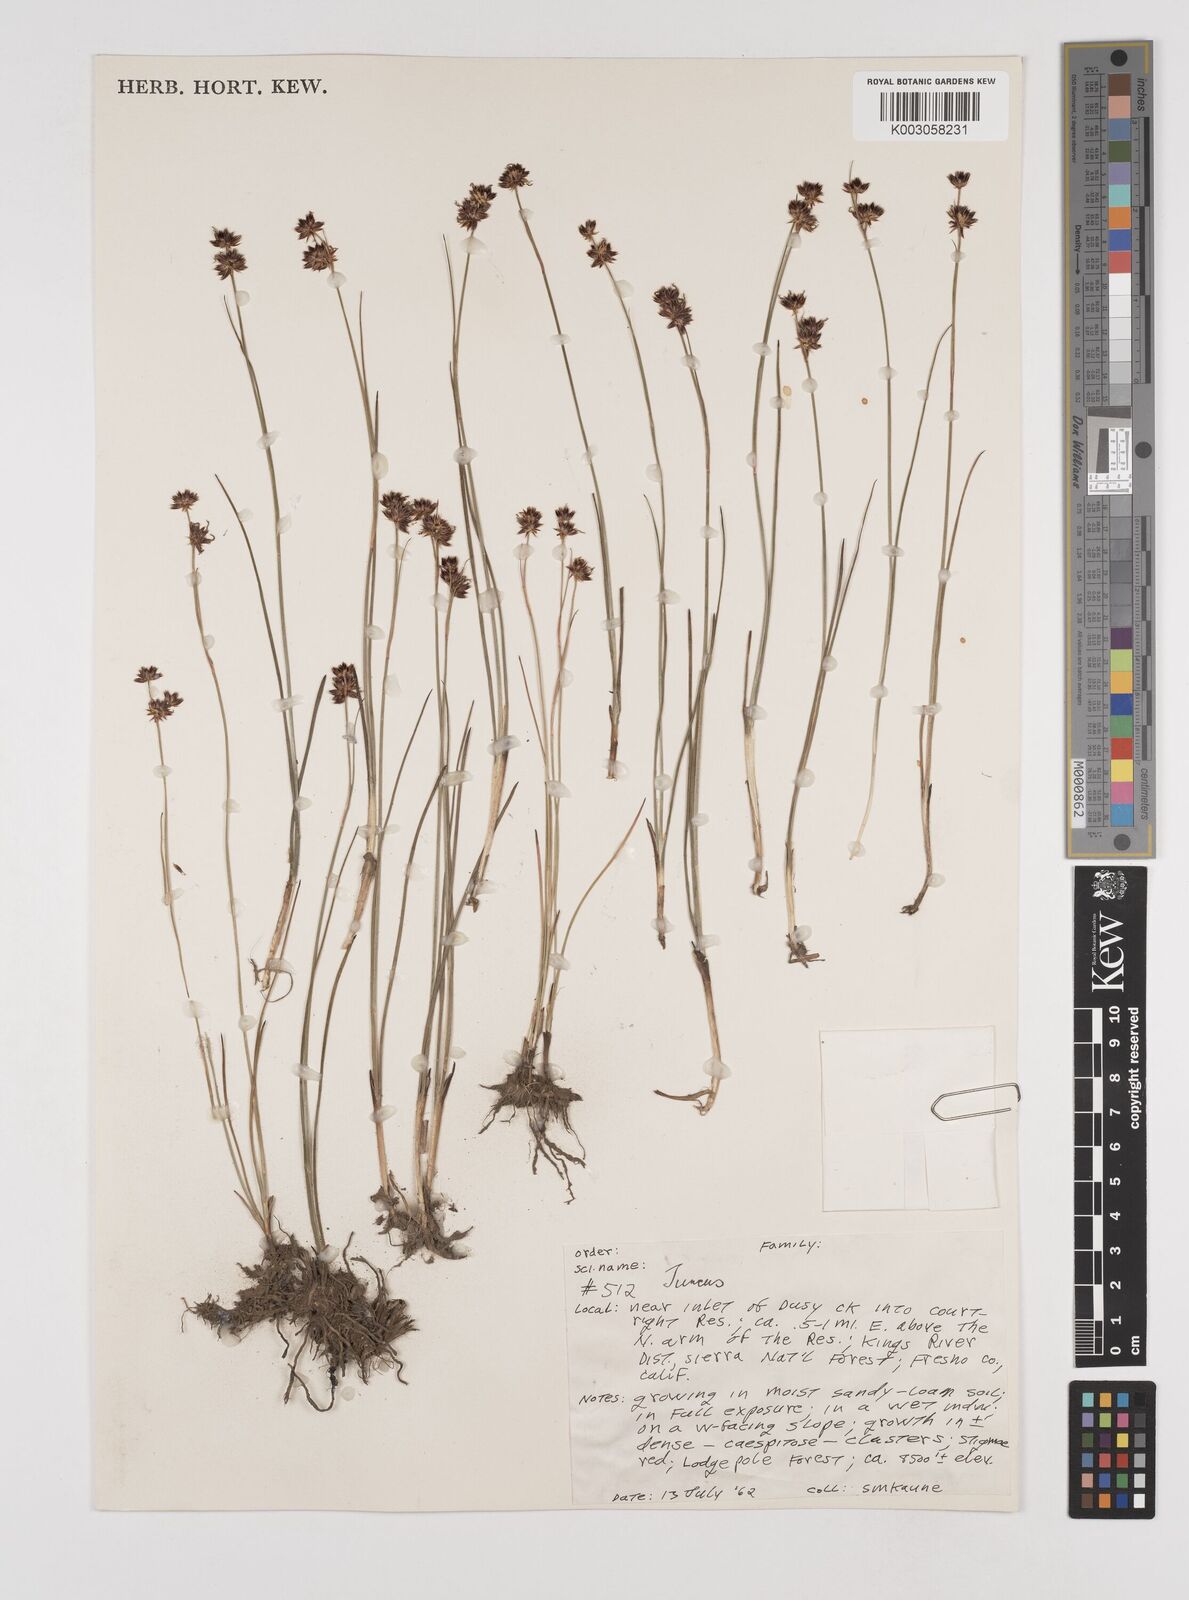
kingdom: Plantae
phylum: Tracheophyta
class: Liliopsida
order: Poales
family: Juncaceae
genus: Juncus
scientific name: Juncus
